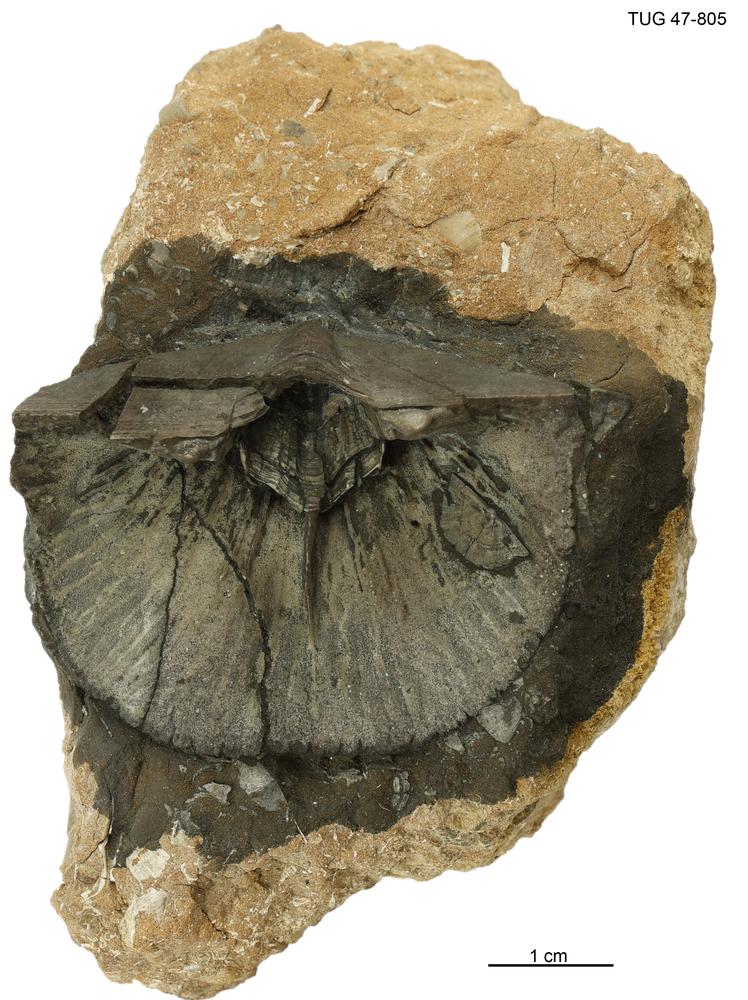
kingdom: Animalia
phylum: Brachiopoda
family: Gonambonitidae
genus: Estlandia
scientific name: Estlandia pyron
